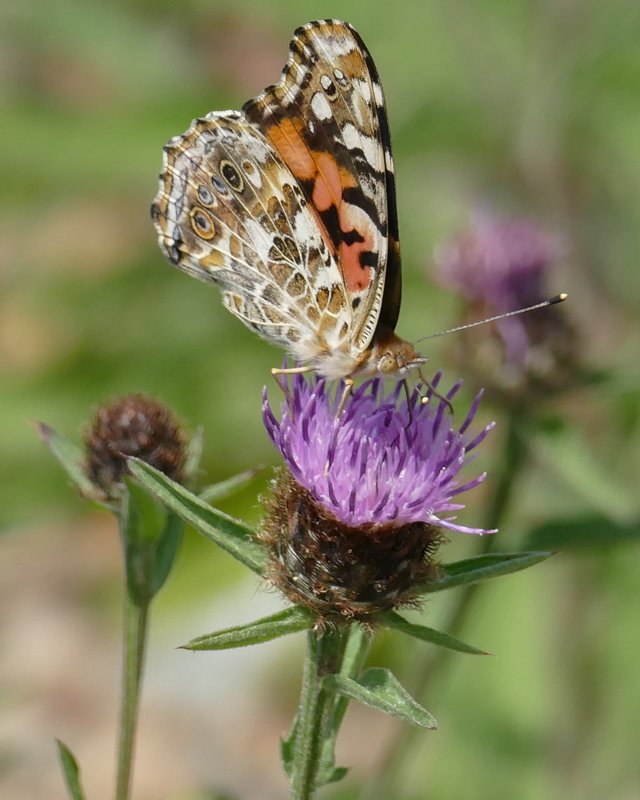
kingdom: Animalia
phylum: Arthropoda
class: Insecta
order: Lepidoptera
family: Nymphalidae
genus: Vanessa
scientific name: Vanessa cardui
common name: Painted Lady
